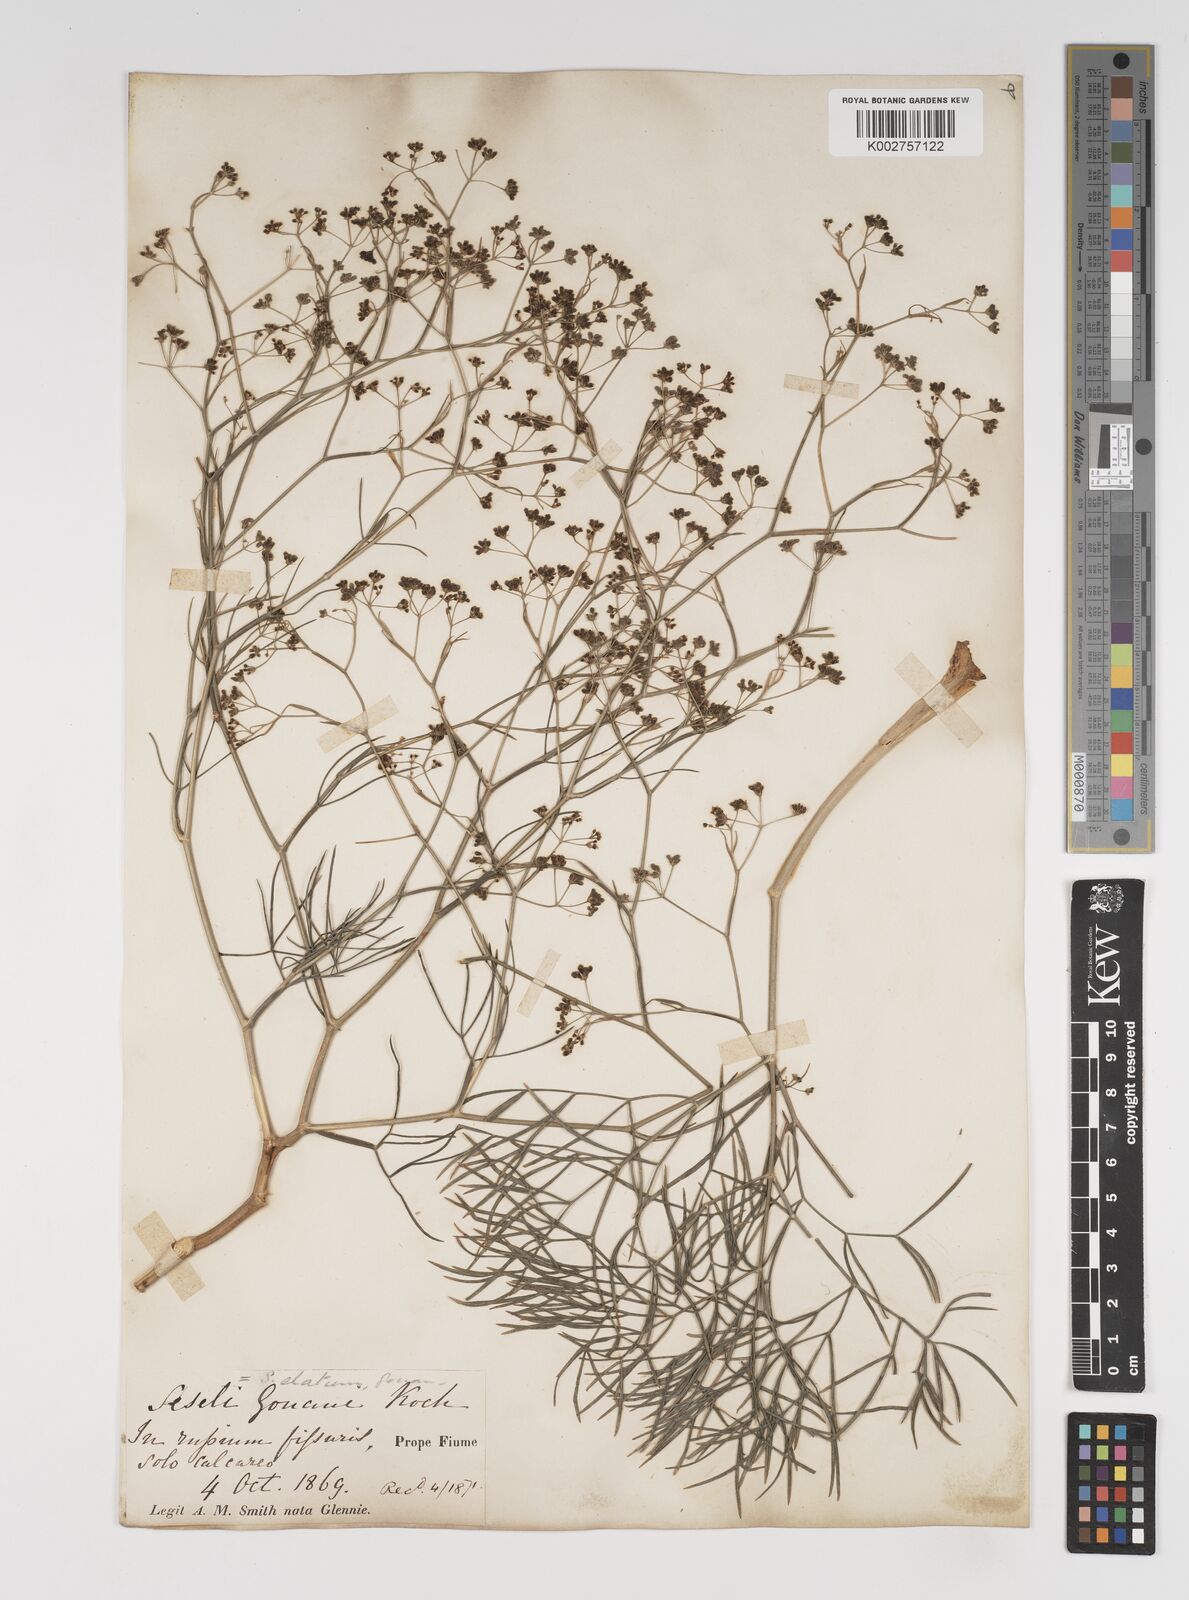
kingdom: Plantae
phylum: Tracheophyta
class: Magnoliopsida
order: Apiales
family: Apiaceae
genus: Seseli
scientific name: Seseli longifolium
